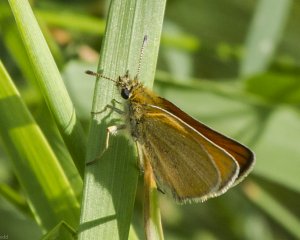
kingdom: Animalia
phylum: Arthropoda
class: Insecta
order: Lepidoptera
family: Hesperiidae
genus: Thymelicus
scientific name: Thymelicus lineola
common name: European Skipper
